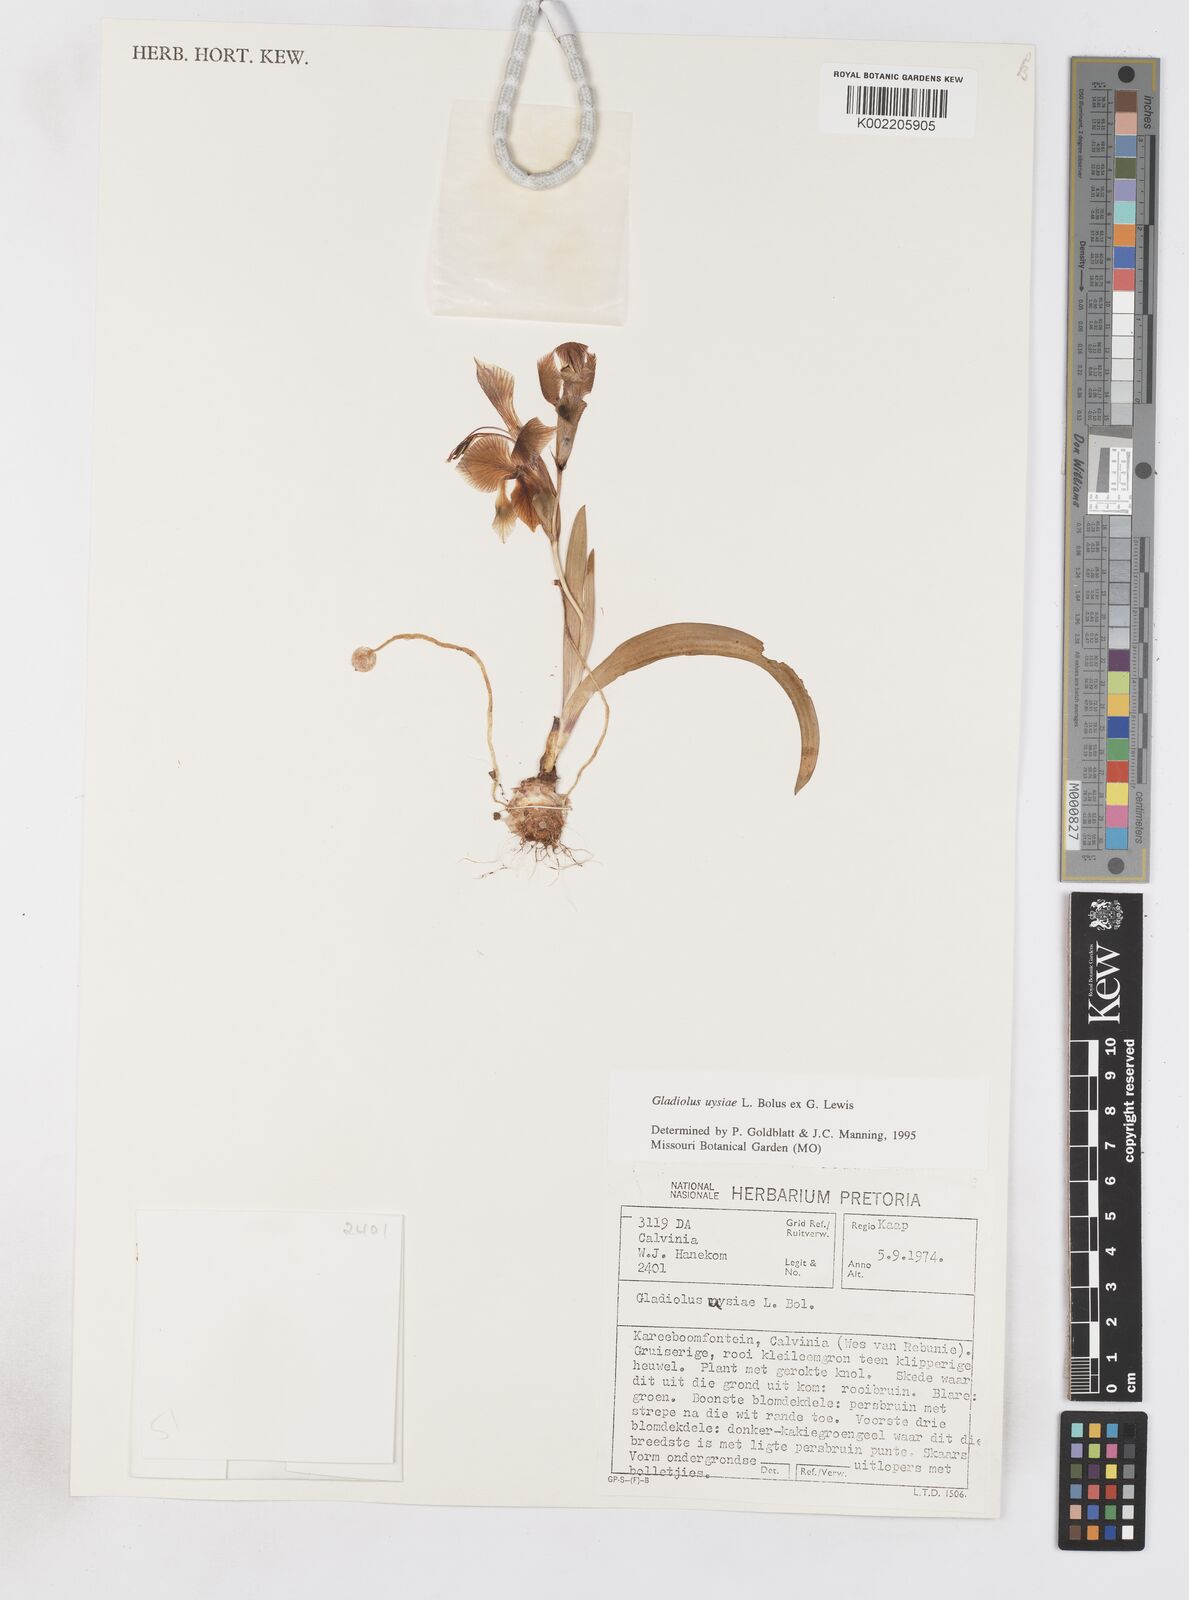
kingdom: Plantae
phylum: Tracheophyta
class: Liliopsida
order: Asparagales
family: Iridaceae
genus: Gladiolus
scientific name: Gladiolus uysiae
